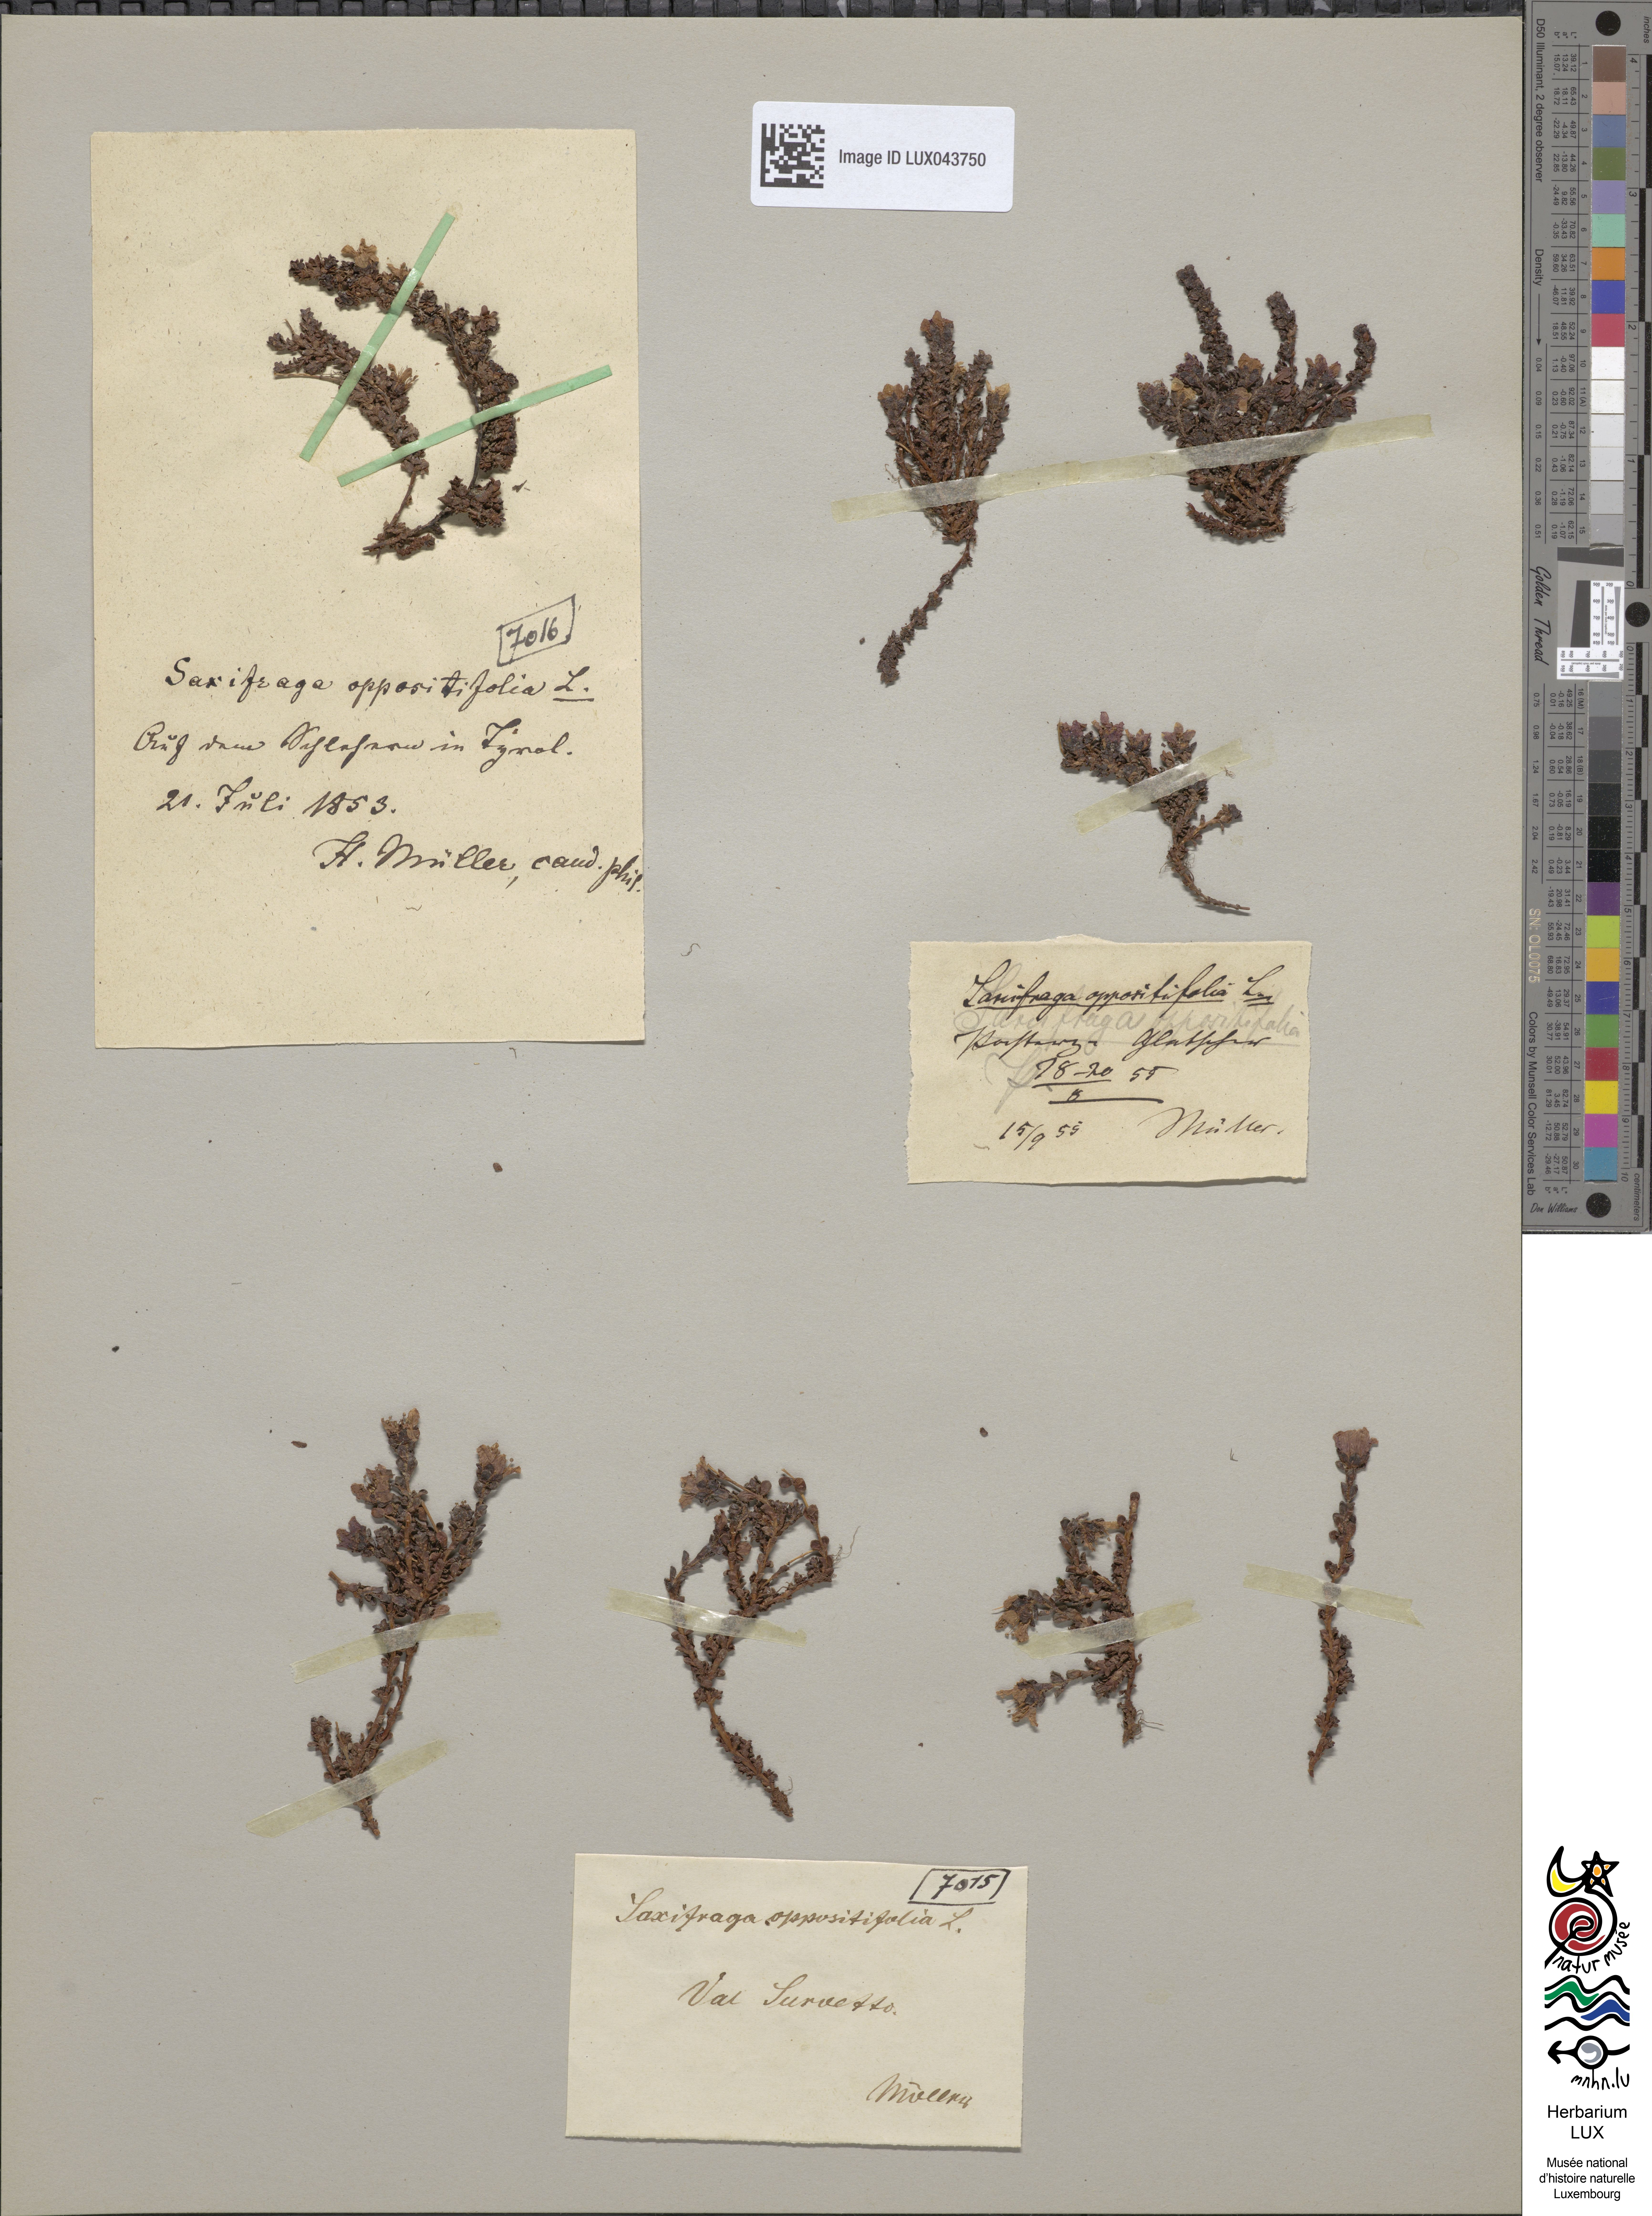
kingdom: Plantae
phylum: Tracheophyta
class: Magnoliopsida
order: Saxifragales
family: Saxifragaceae
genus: Saxifraga
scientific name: Saxifraga oppositifolia
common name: Purple saxifrage
